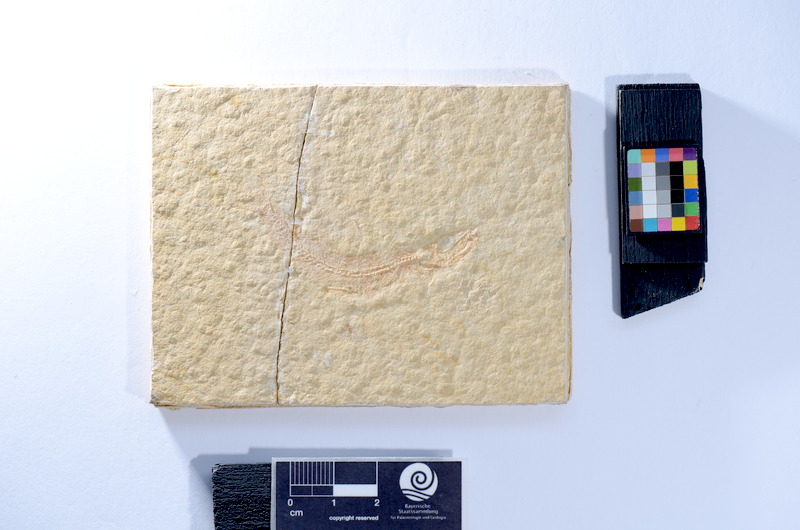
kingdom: Animalia
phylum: Chordata
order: Salmoniformes
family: Orthogonikleithridae
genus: Leptolepides
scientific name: Leptolepides sprattiformis
